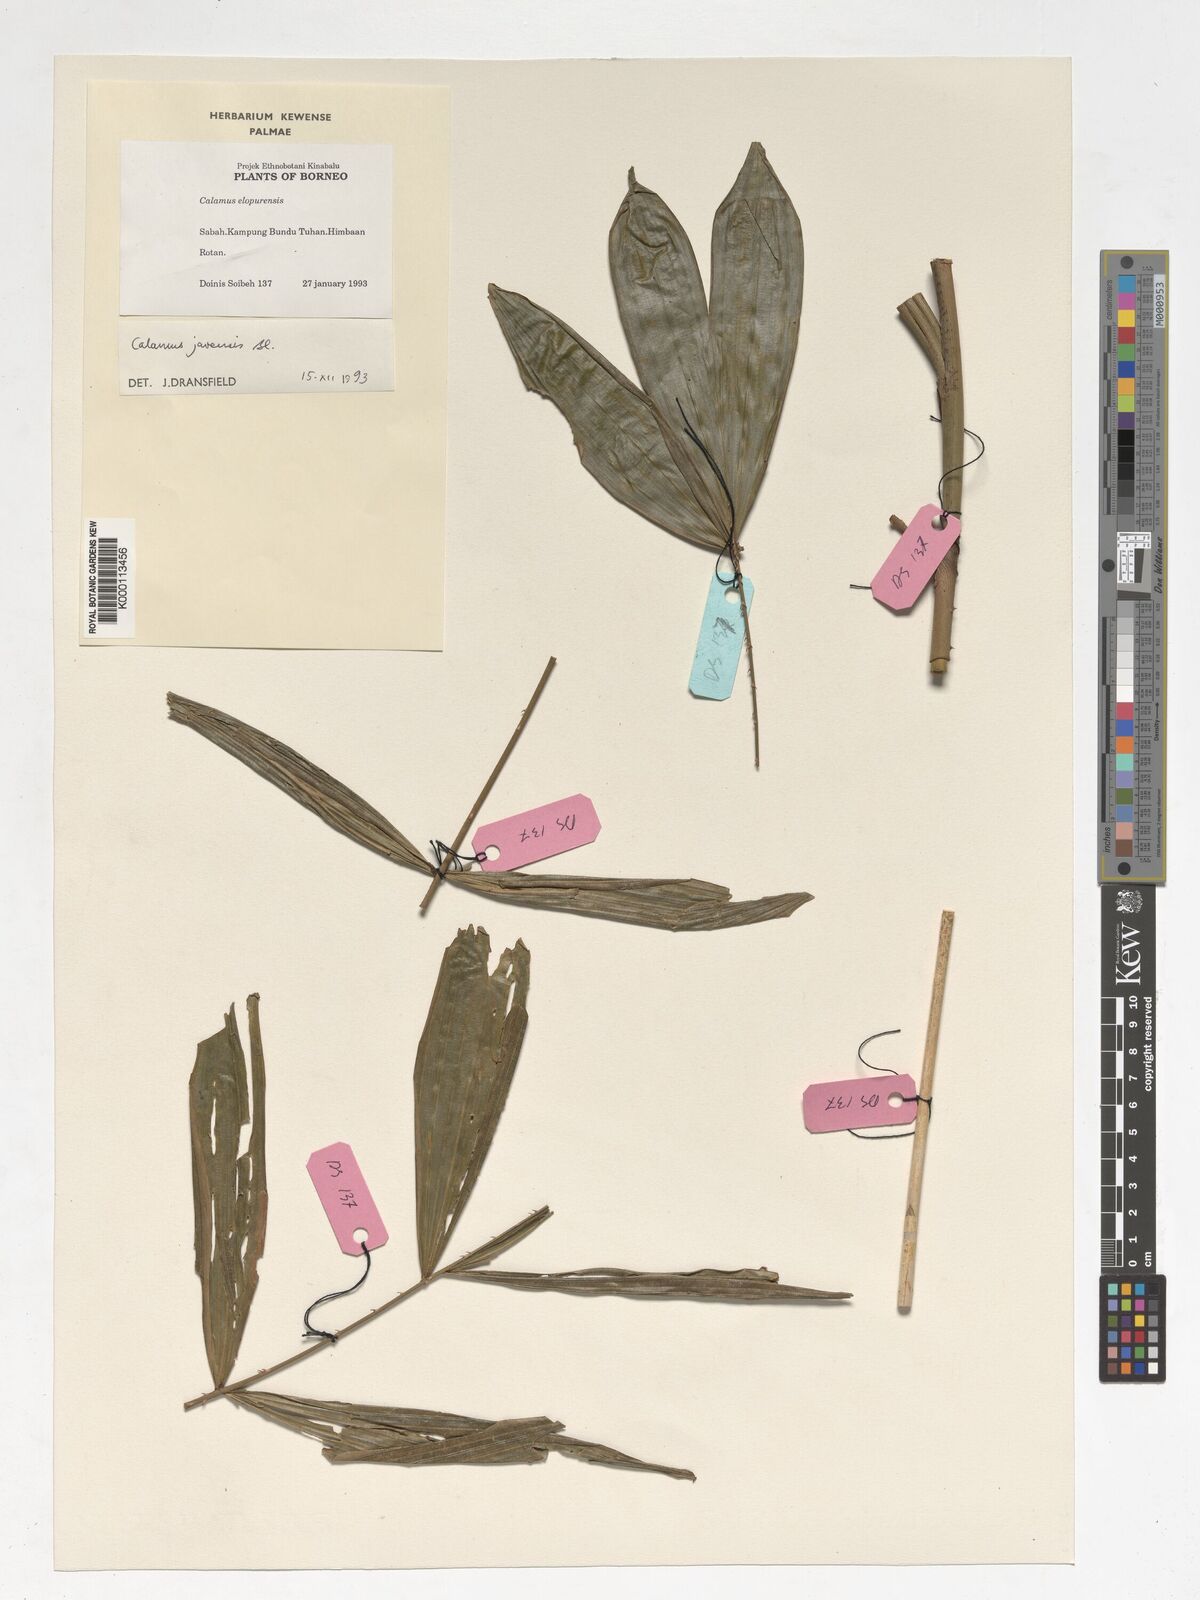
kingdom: Plantae
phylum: Tracheophyta
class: Liliopsida
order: Arecales
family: Arecaceae
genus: Calamus
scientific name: Calamus javensis
